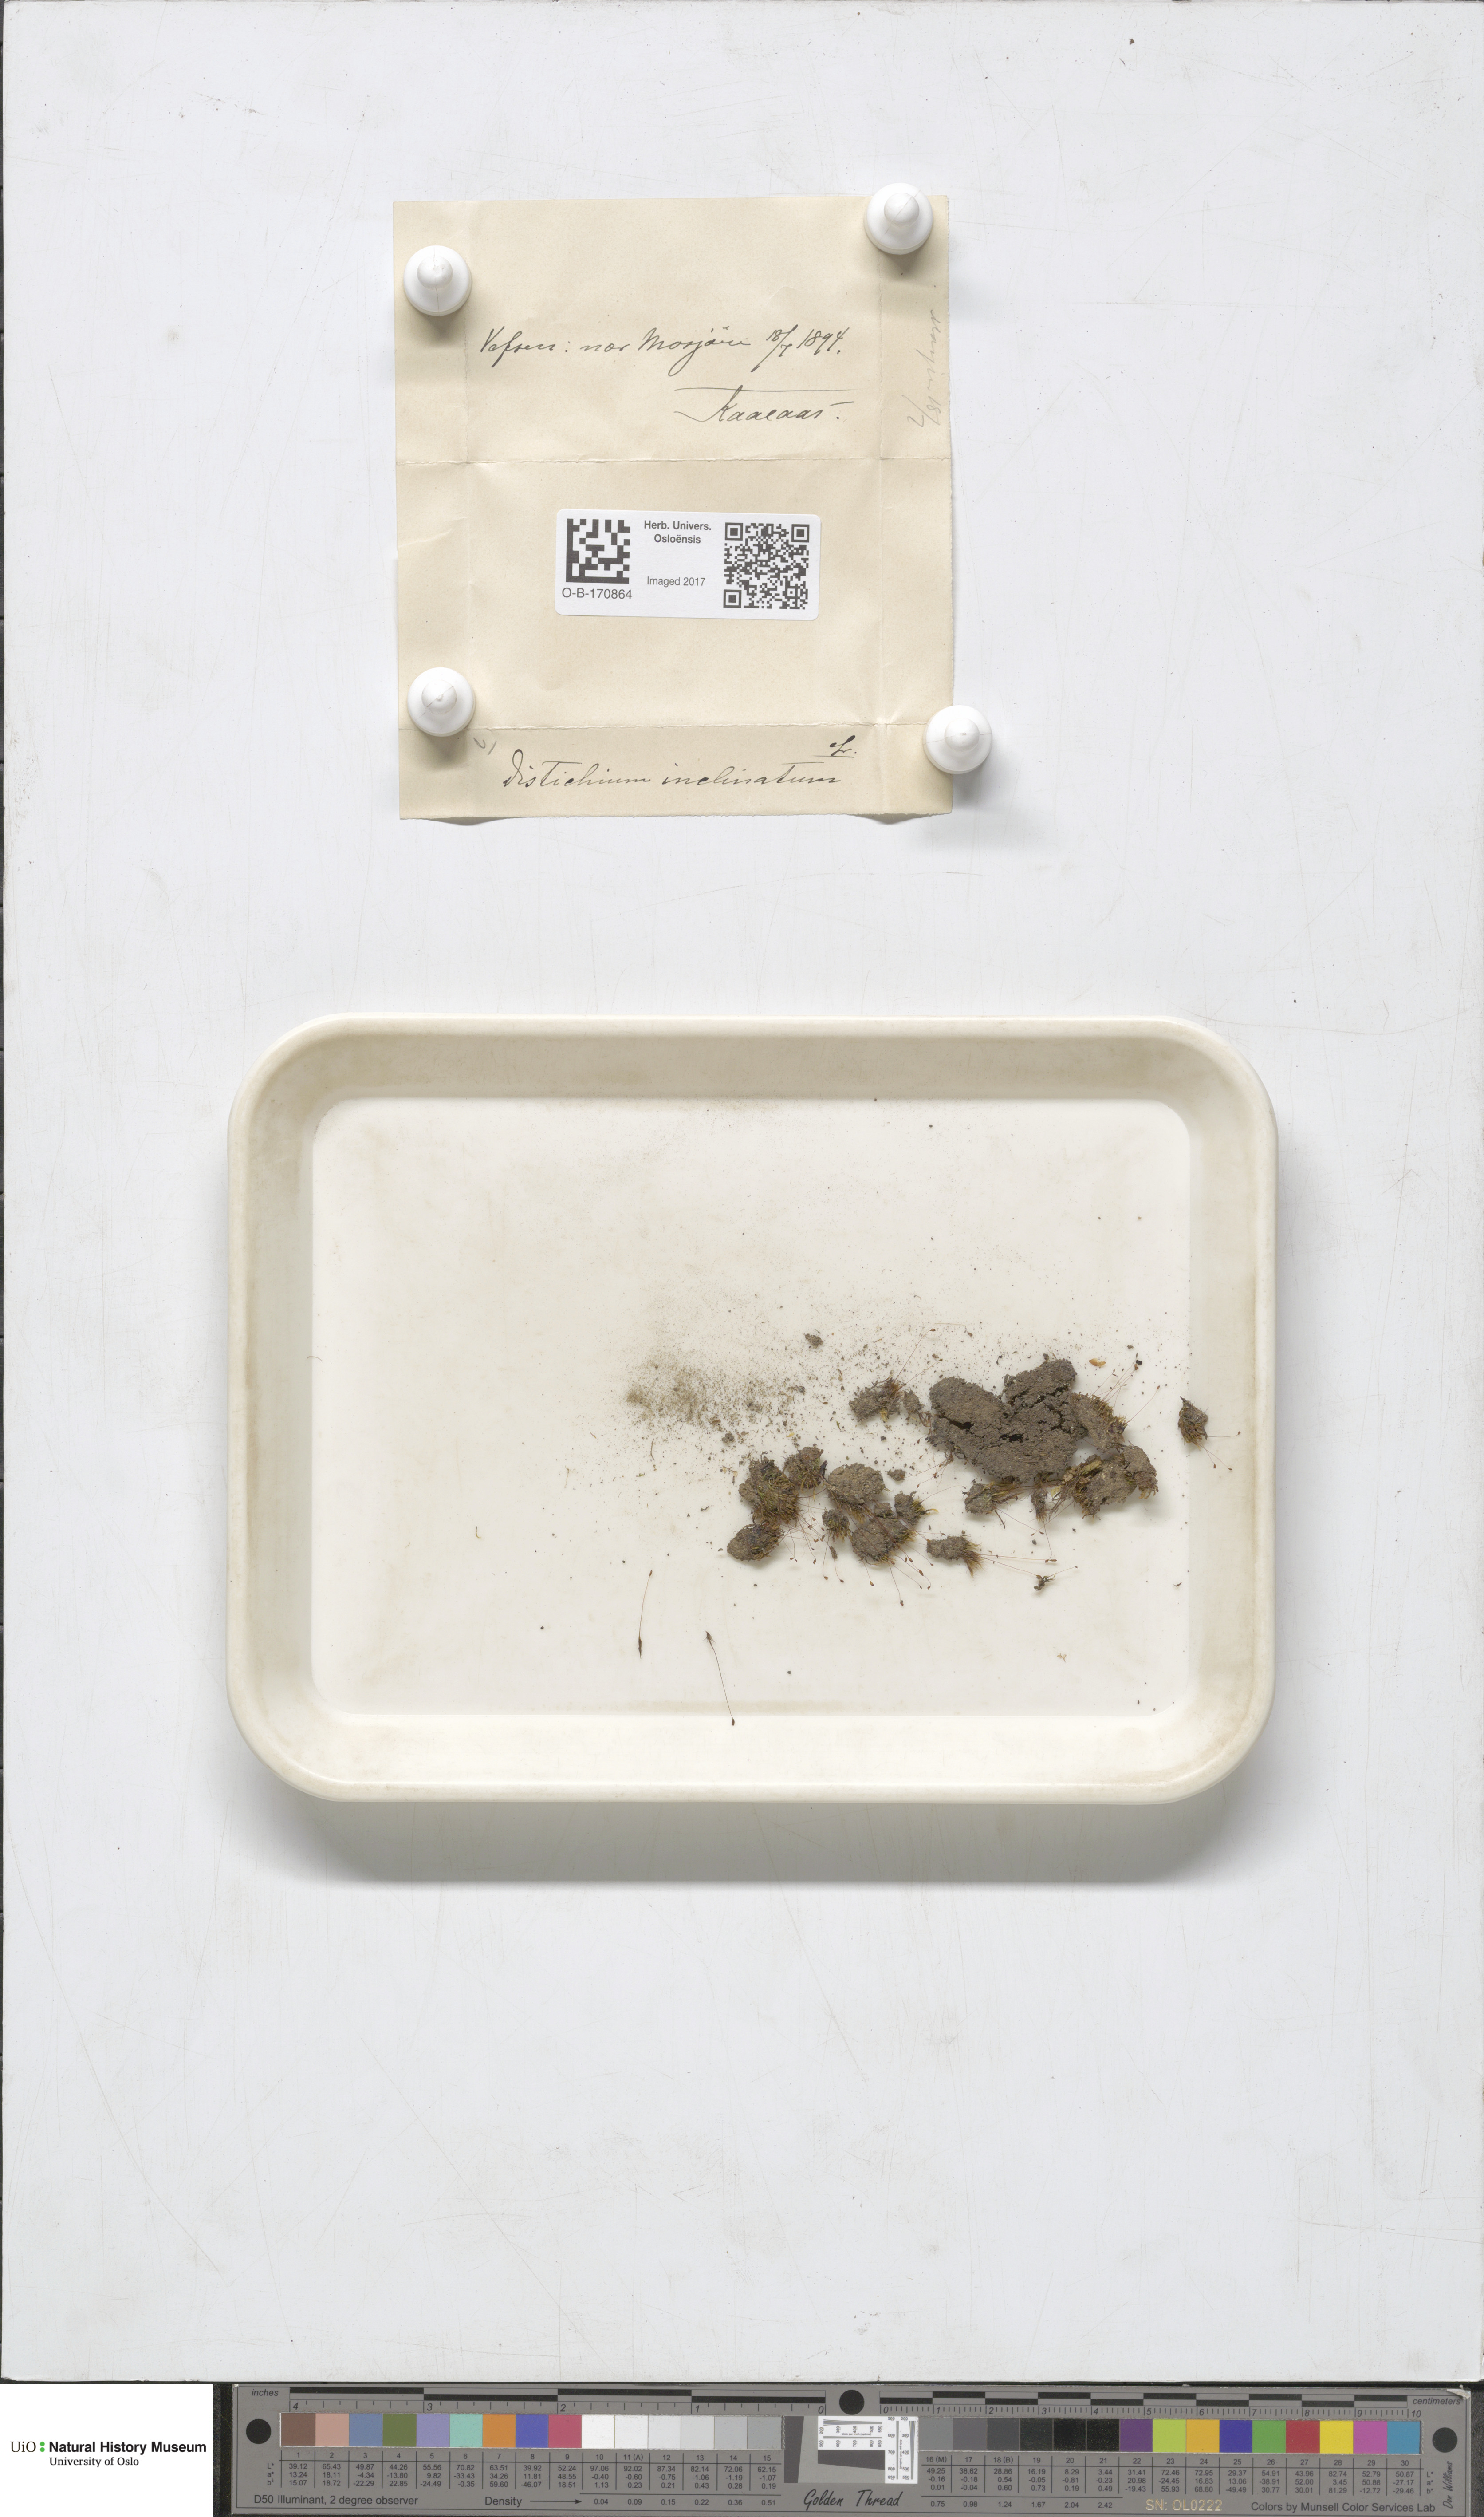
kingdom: Plantae
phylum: Bryophyta
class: Bryopsida
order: Scouleriales
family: Distichiaceae
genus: Distichium
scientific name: Distichium inclinatum
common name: Inclined iris moss
